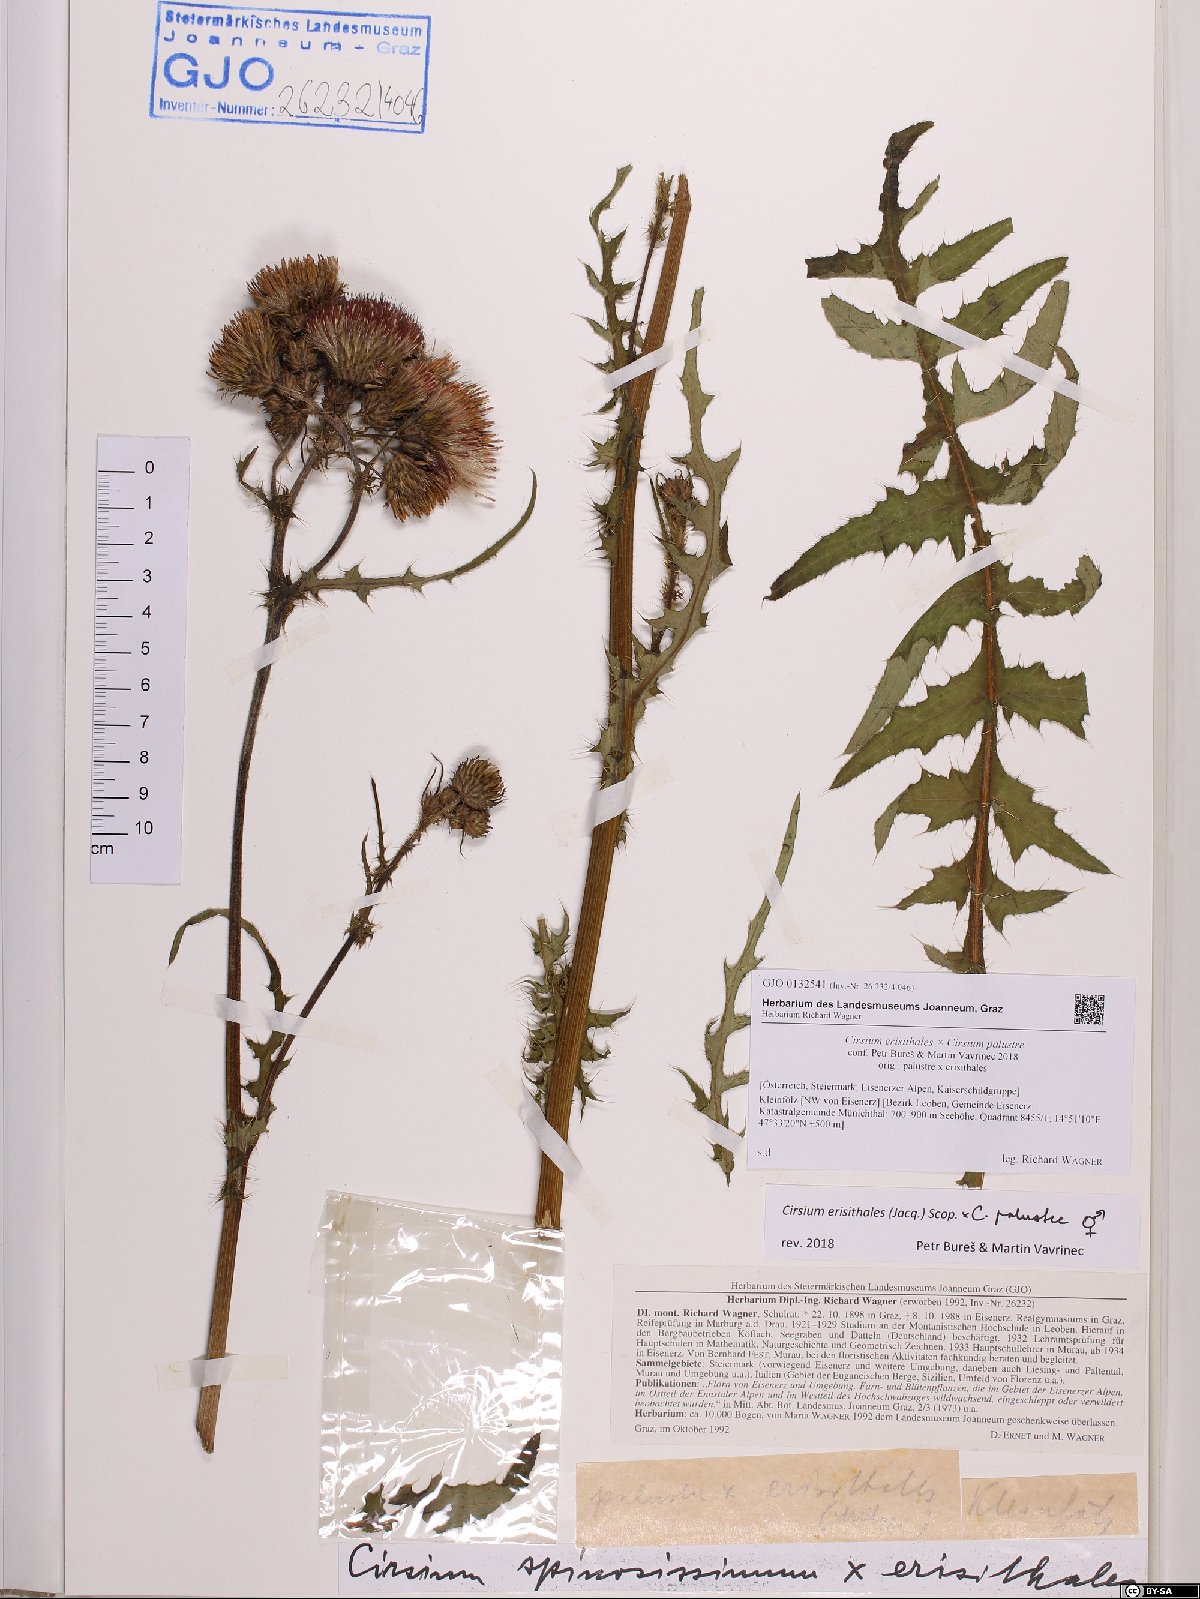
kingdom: Plantae
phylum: Tracheophyta
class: Magnoliopsida
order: Asterales
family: Asteraceae
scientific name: Asteraceae
